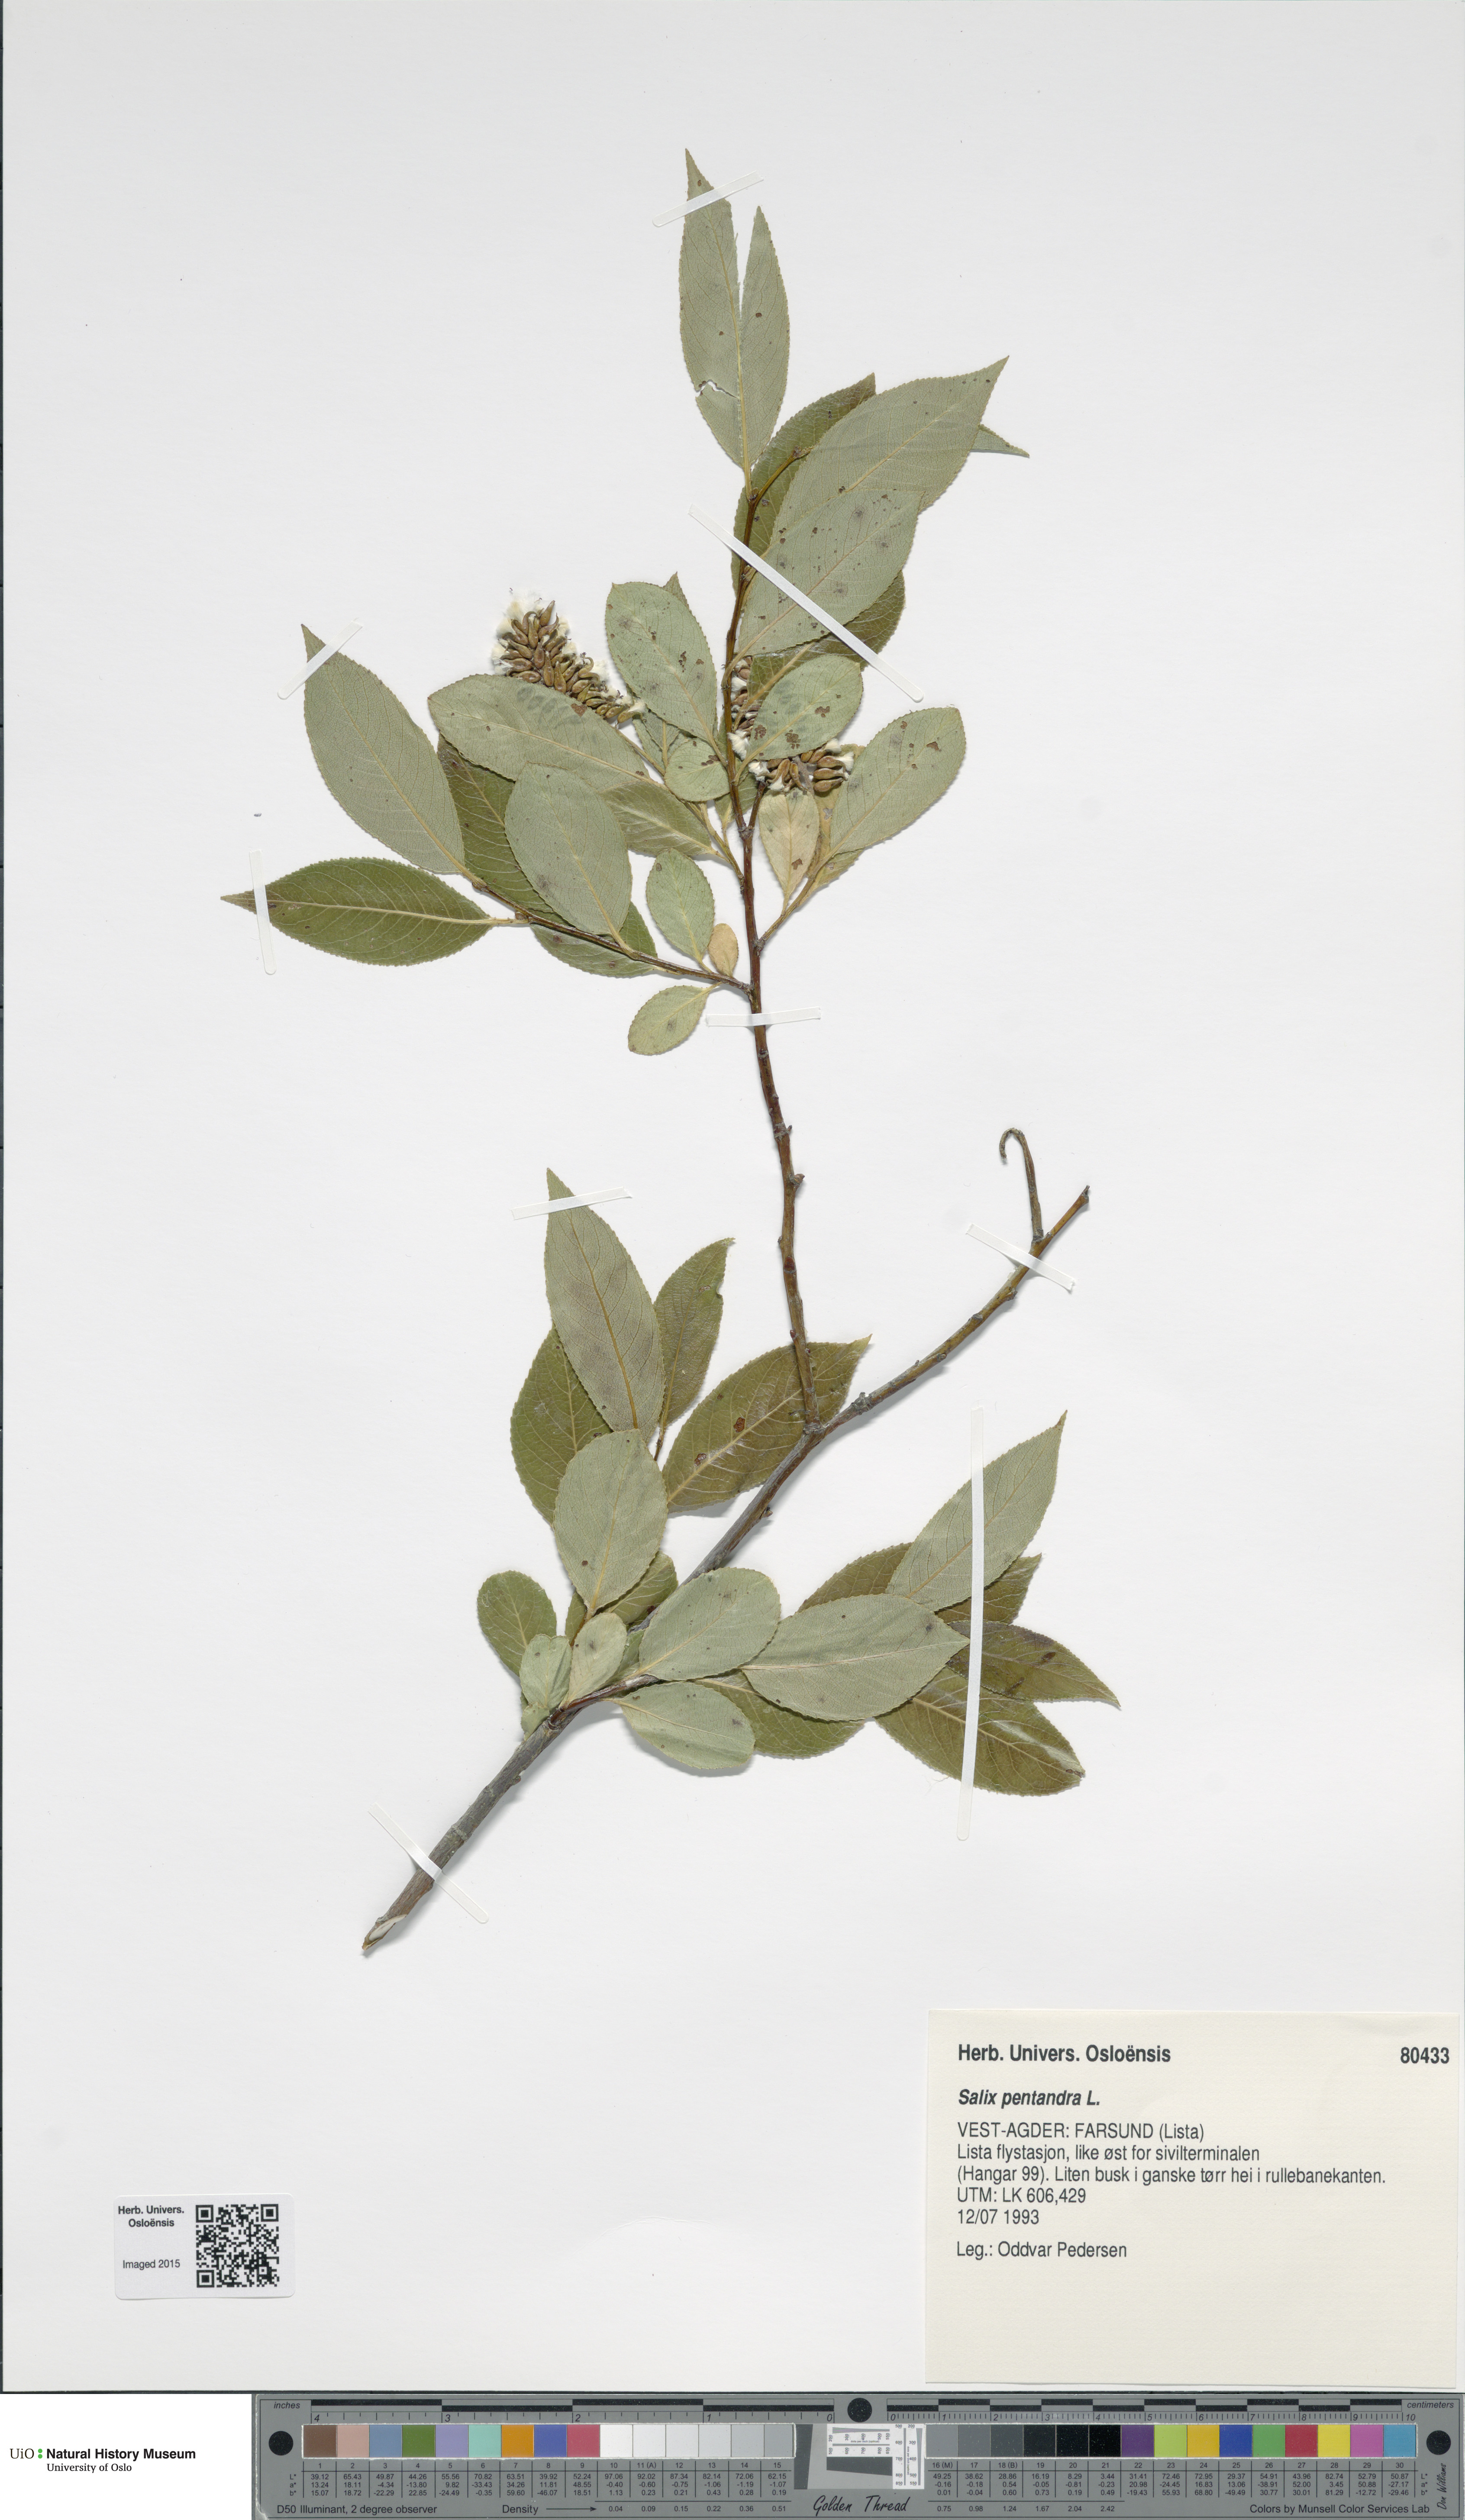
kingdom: Plantae
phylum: Tracheophyta
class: Magnoliopsida
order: Malpighiales
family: Salicaceae
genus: Salix
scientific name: Salix pentandra
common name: Bay willow
